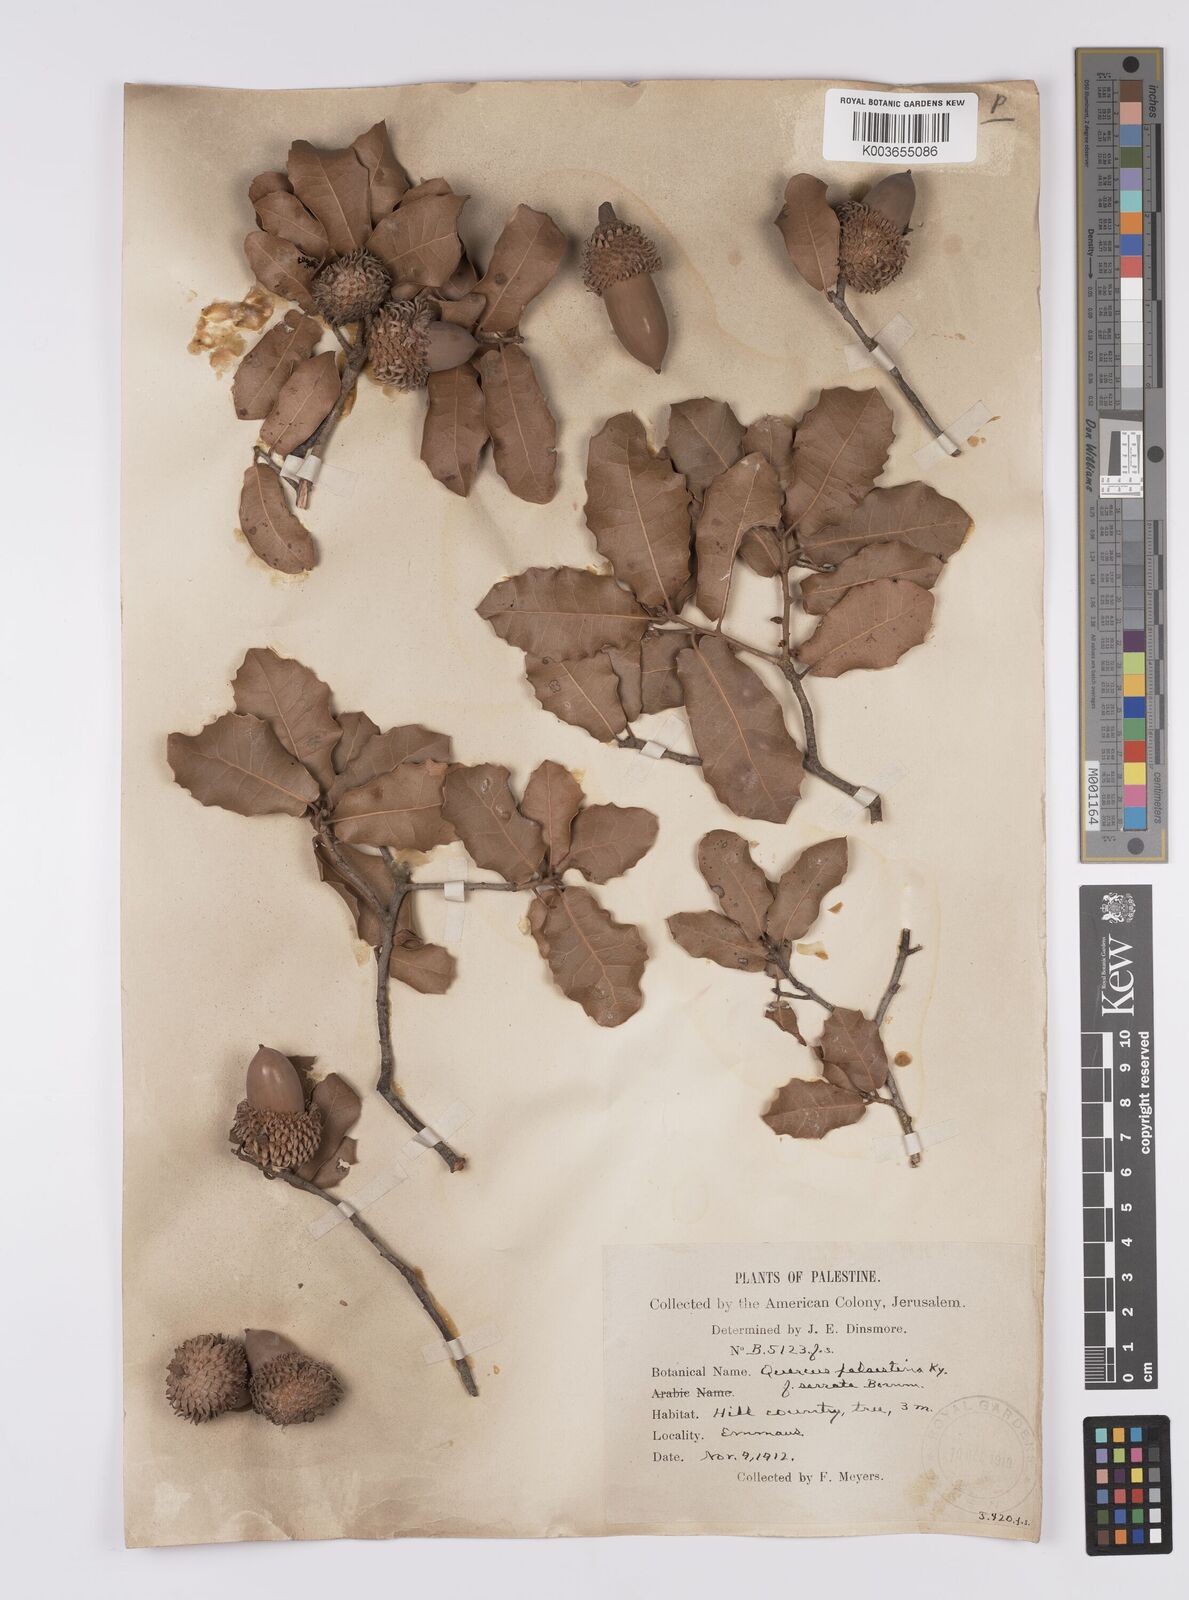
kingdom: Plantae
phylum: Tracheophyta
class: Magnoliopsida
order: Fagales
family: Fagaceae
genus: Quercus
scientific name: Quercus coccifera
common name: Kermes oak
